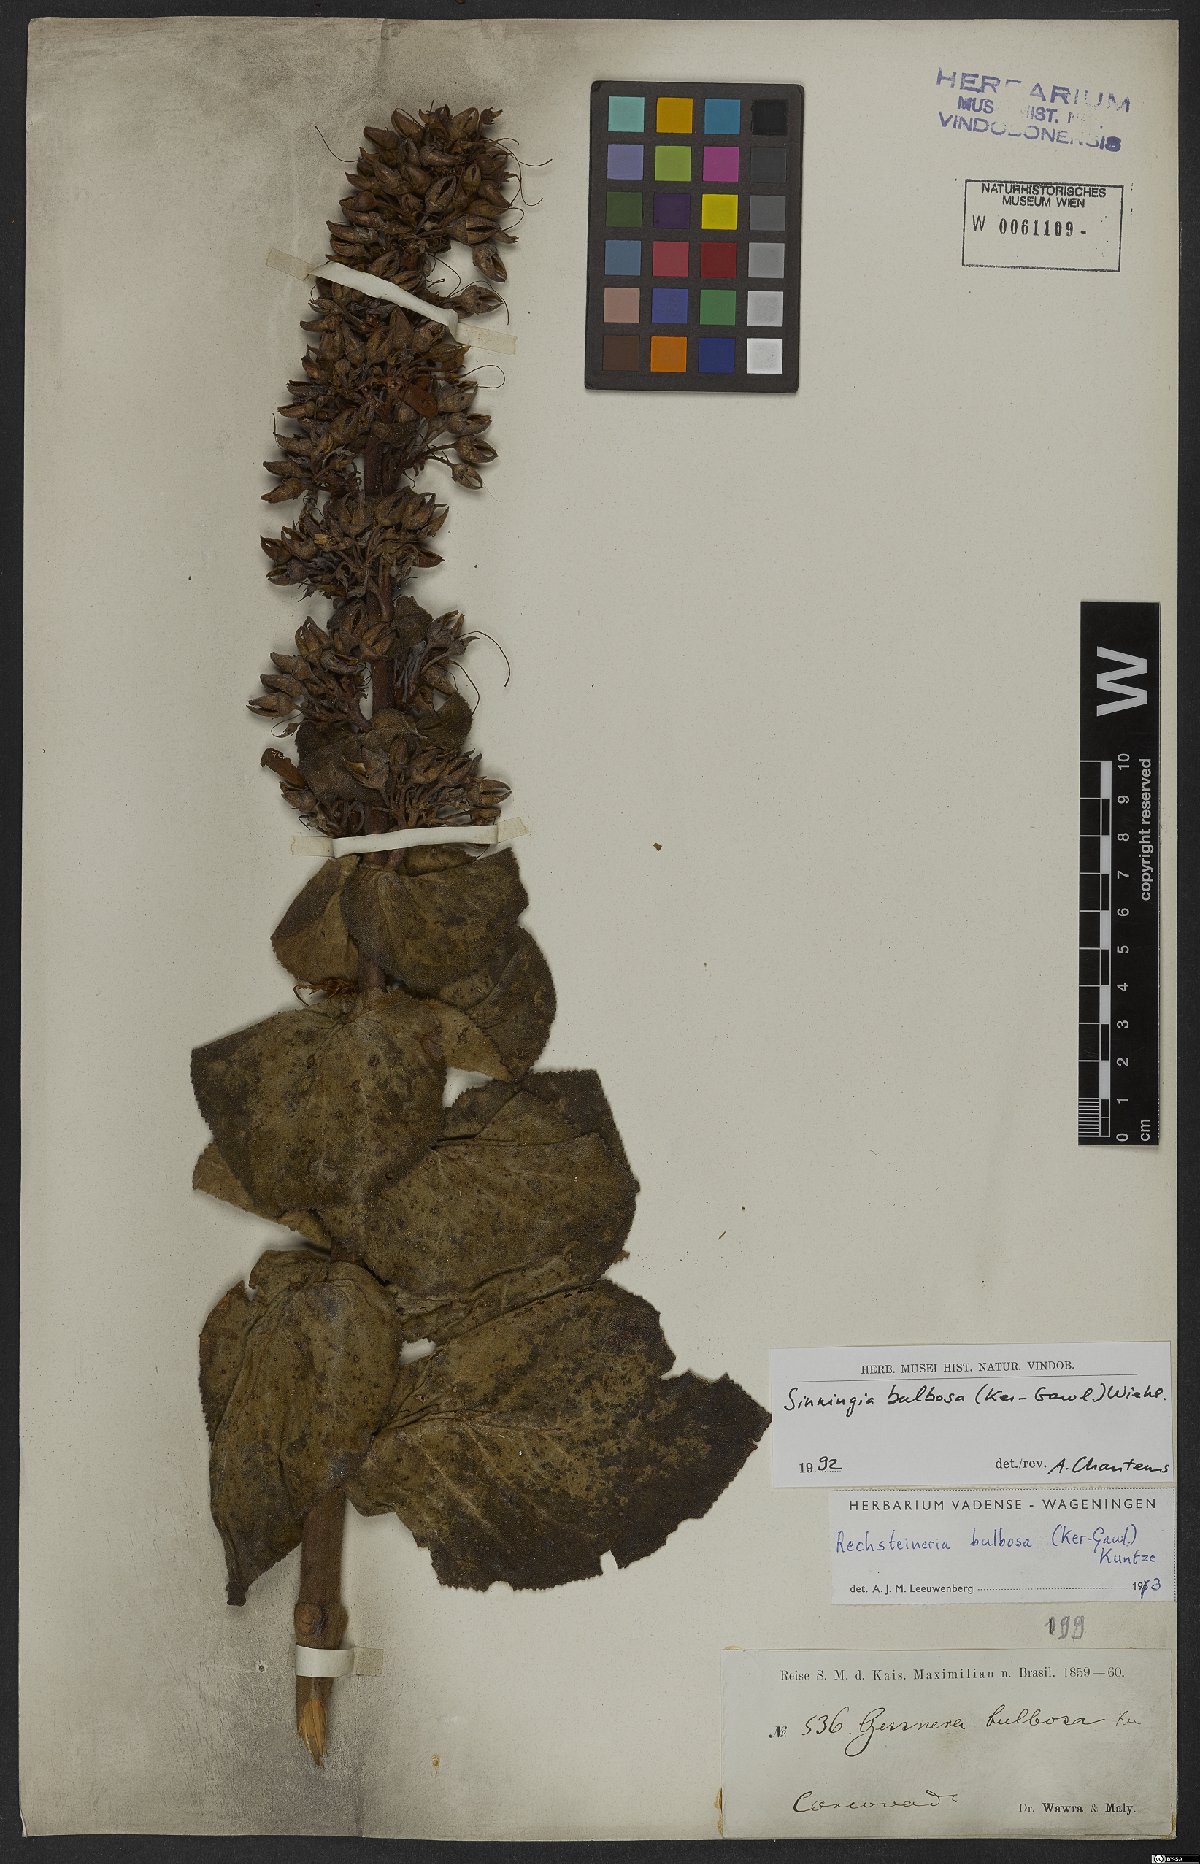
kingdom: Plantae
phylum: Tracheophyta
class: Magnoliopsida
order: Lamiales
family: Gesneriaceae
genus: Sinningia
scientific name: Sinningia bulbosa
